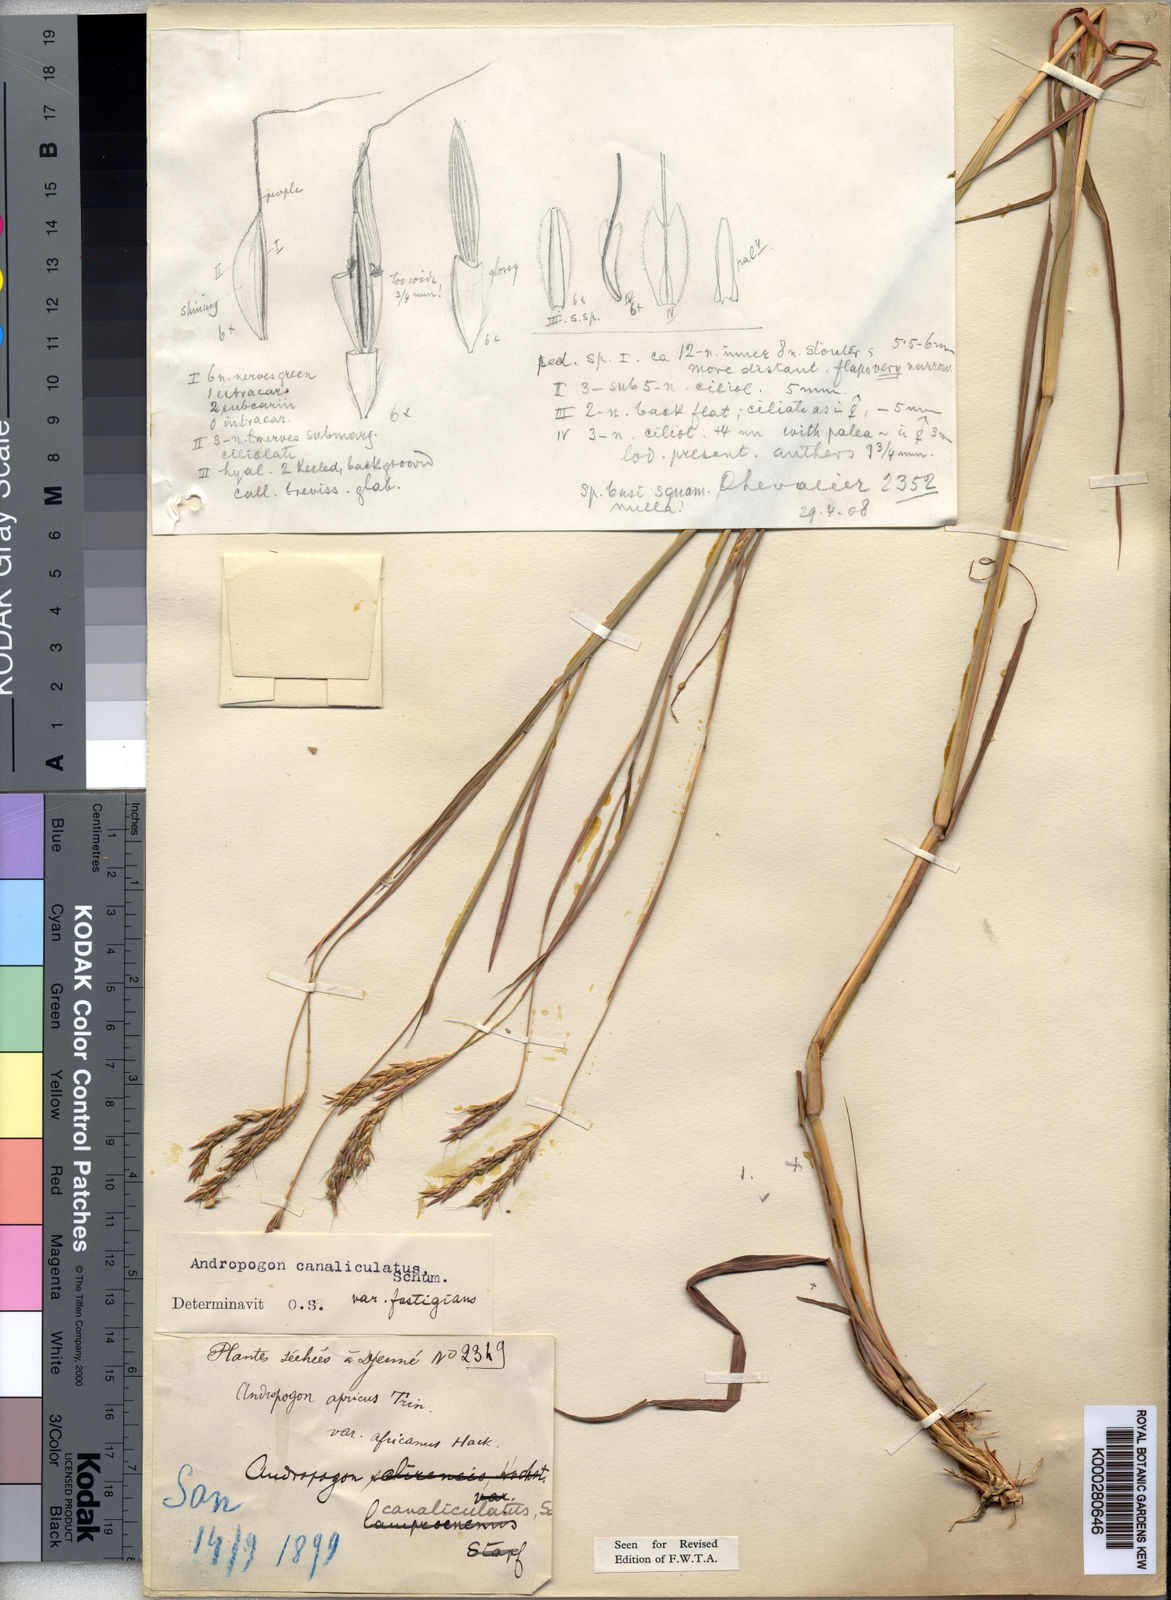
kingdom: Plantae
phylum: Tracheophyta
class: Liliopsida
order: Poales
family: Poaceae
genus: Andropogon
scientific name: Andropogon canaliculatus
